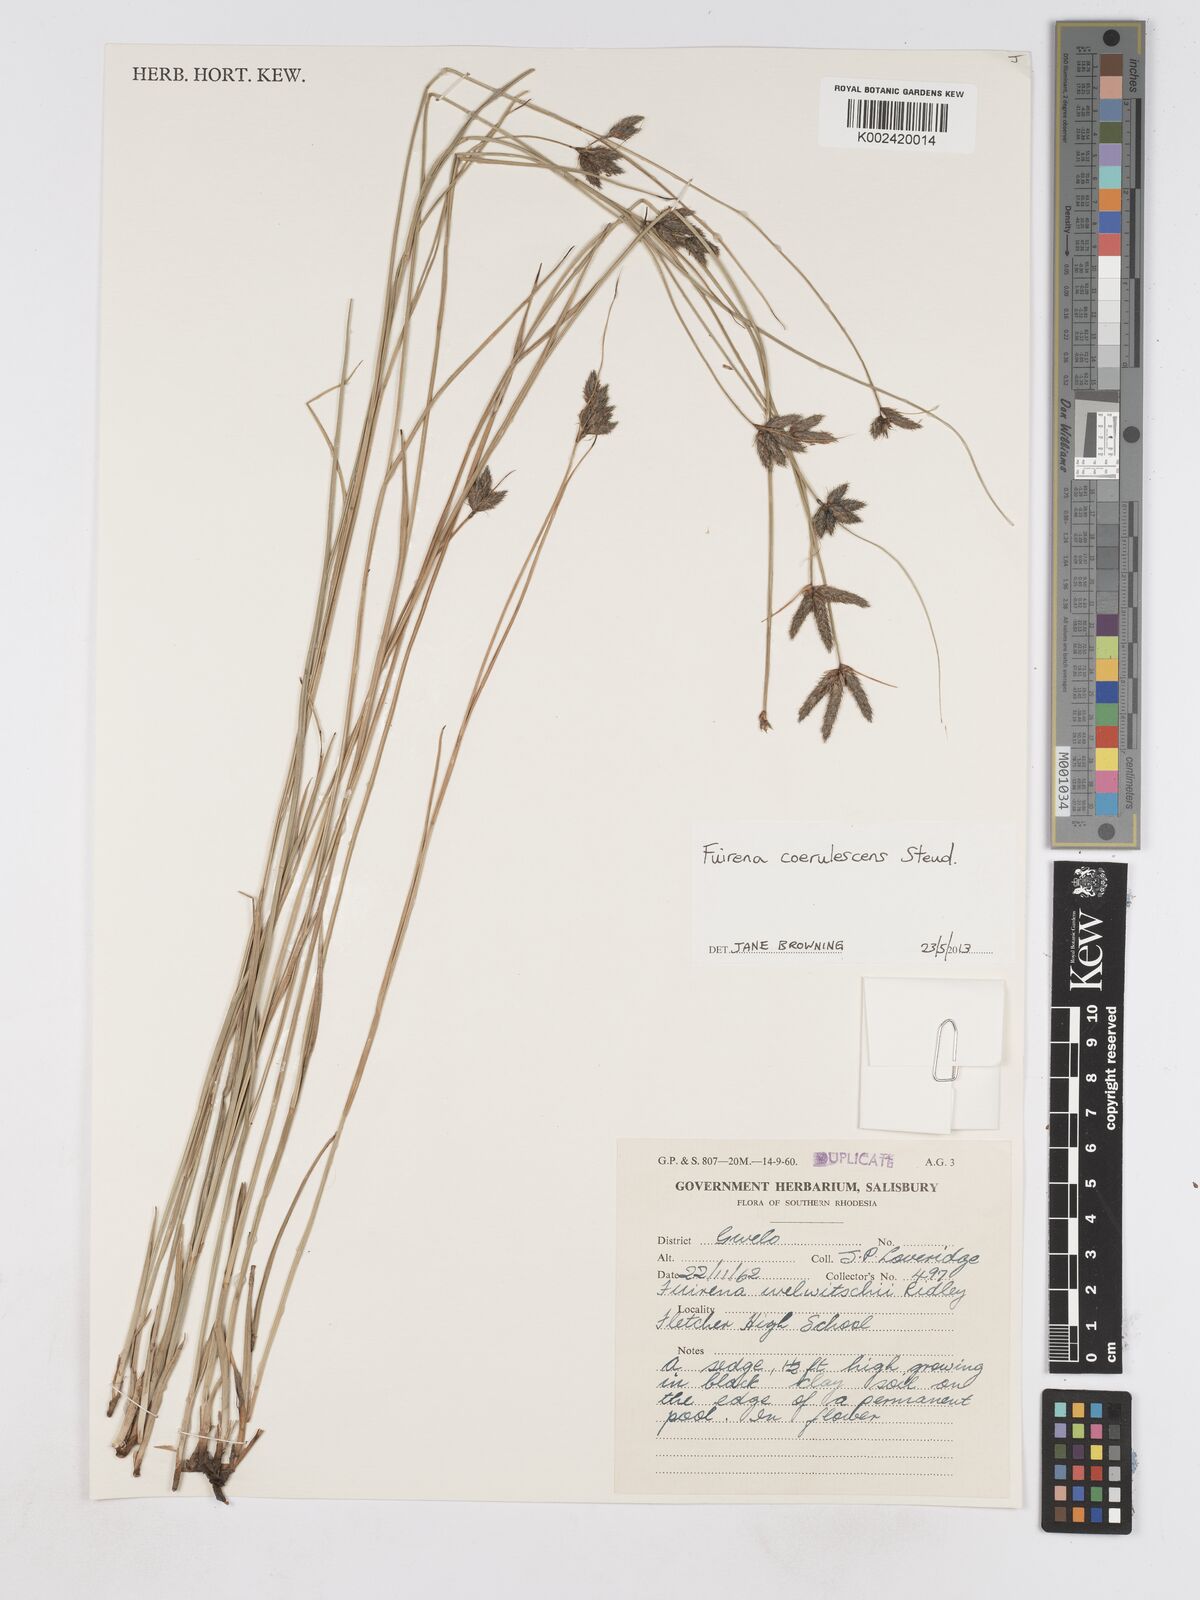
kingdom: Plantae
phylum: Tracheophyta
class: Liliopsida
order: Poales
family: Cyperaceae
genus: Fuirena
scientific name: Fuirena coerulescens
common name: Blue umbrella-sedge
